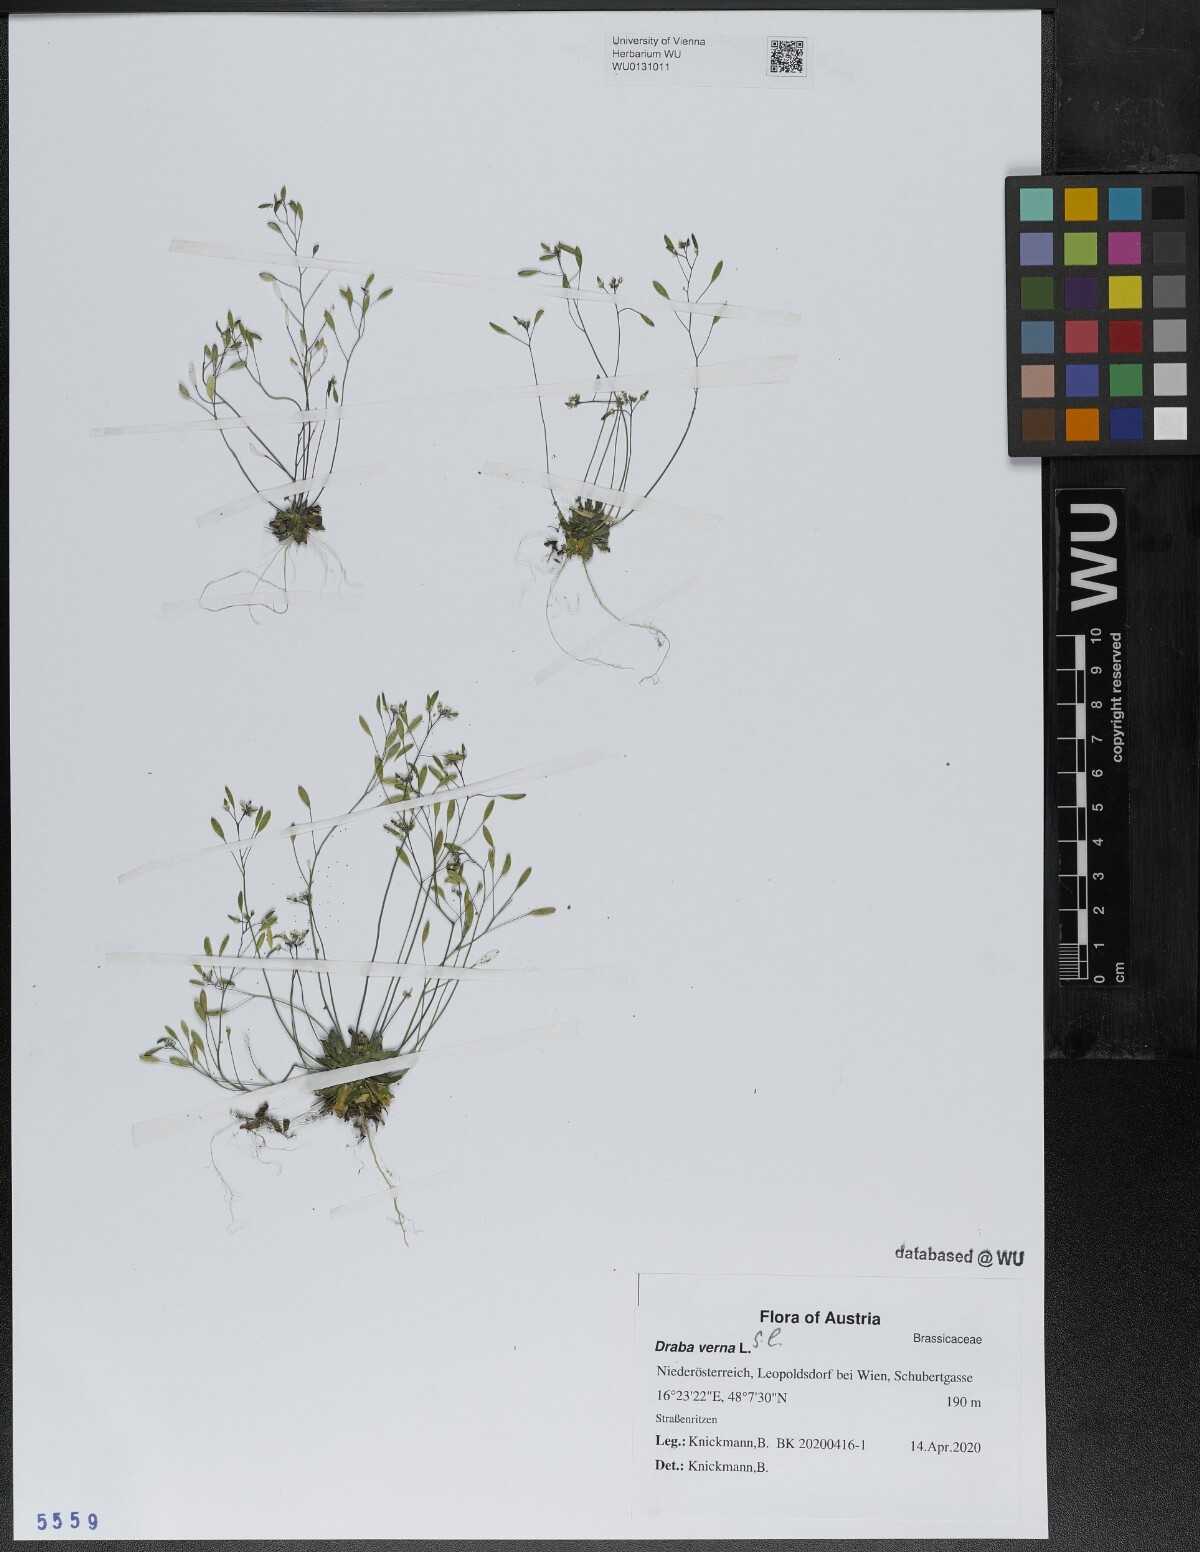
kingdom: Plantae
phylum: Tracheophyta
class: Magnoliopsida
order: Brassicales
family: Brassicaceae
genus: Draba
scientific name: Draba verna
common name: Spring draba
